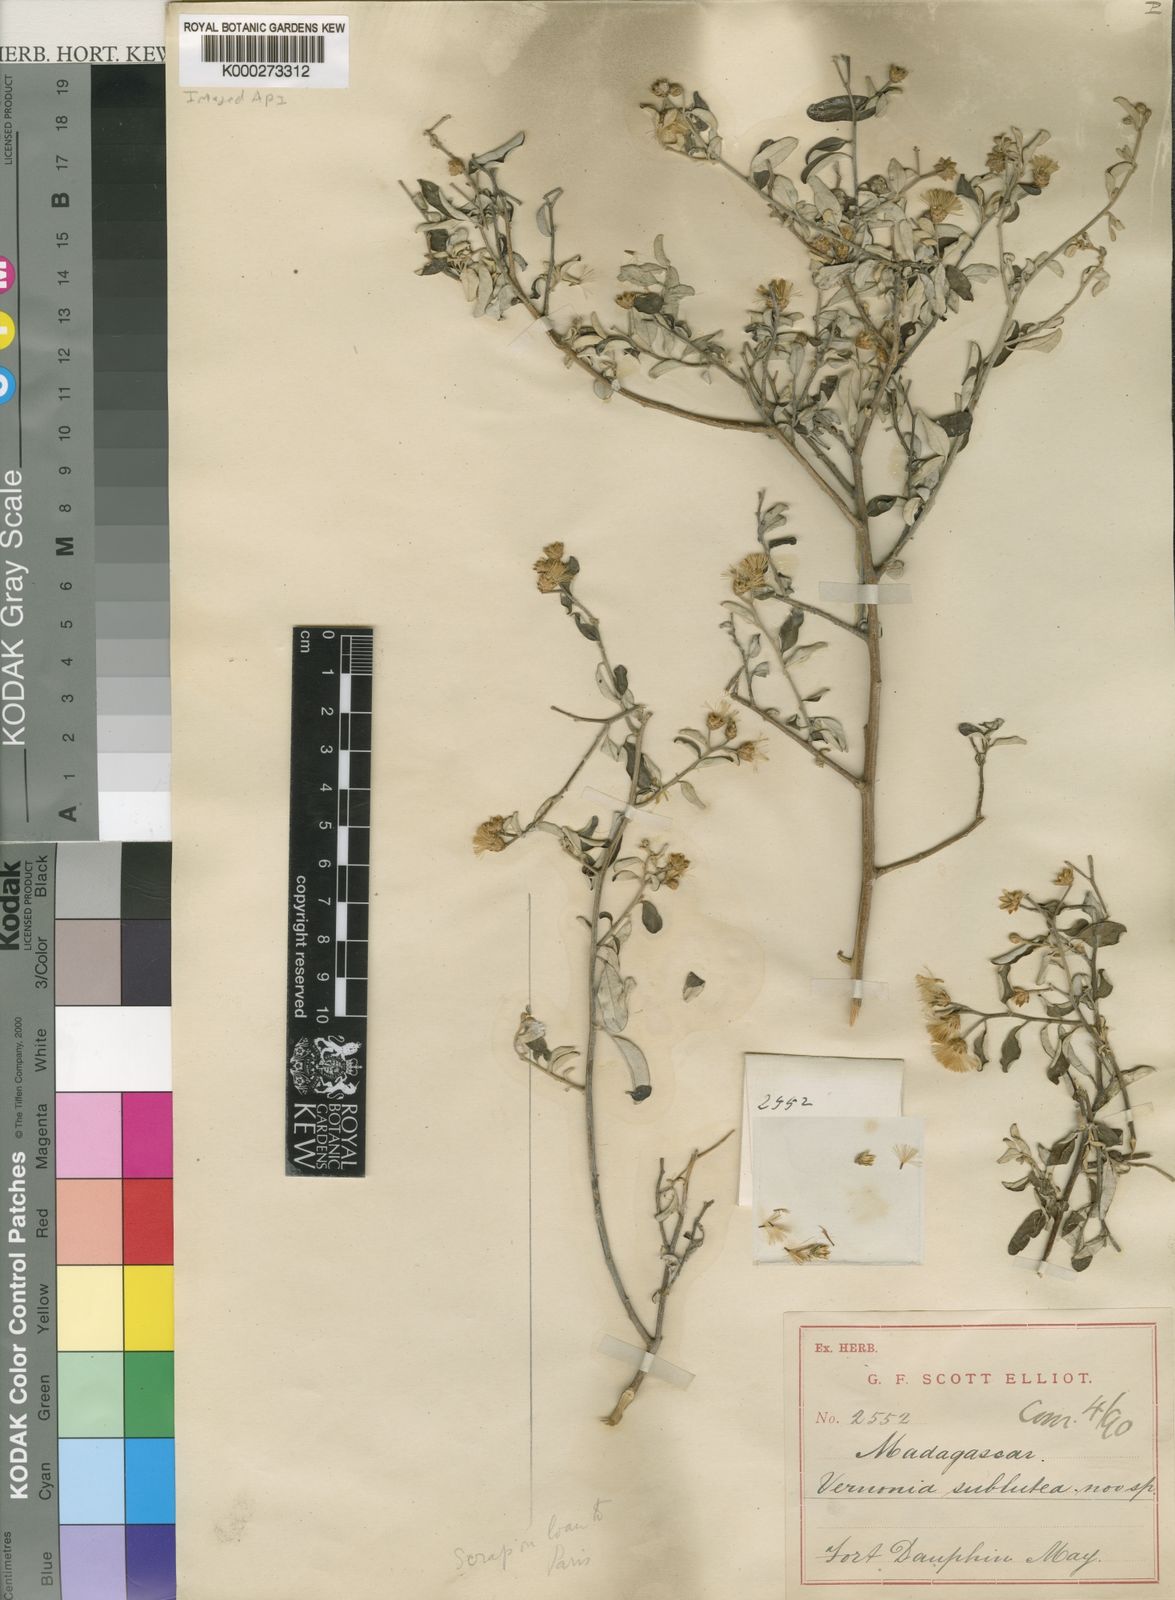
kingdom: Plantae
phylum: Tracheophyta
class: Magnoliopsida
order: Asterales
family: Asteraceae
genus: Distephanus
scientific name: Distephanus subluteus
